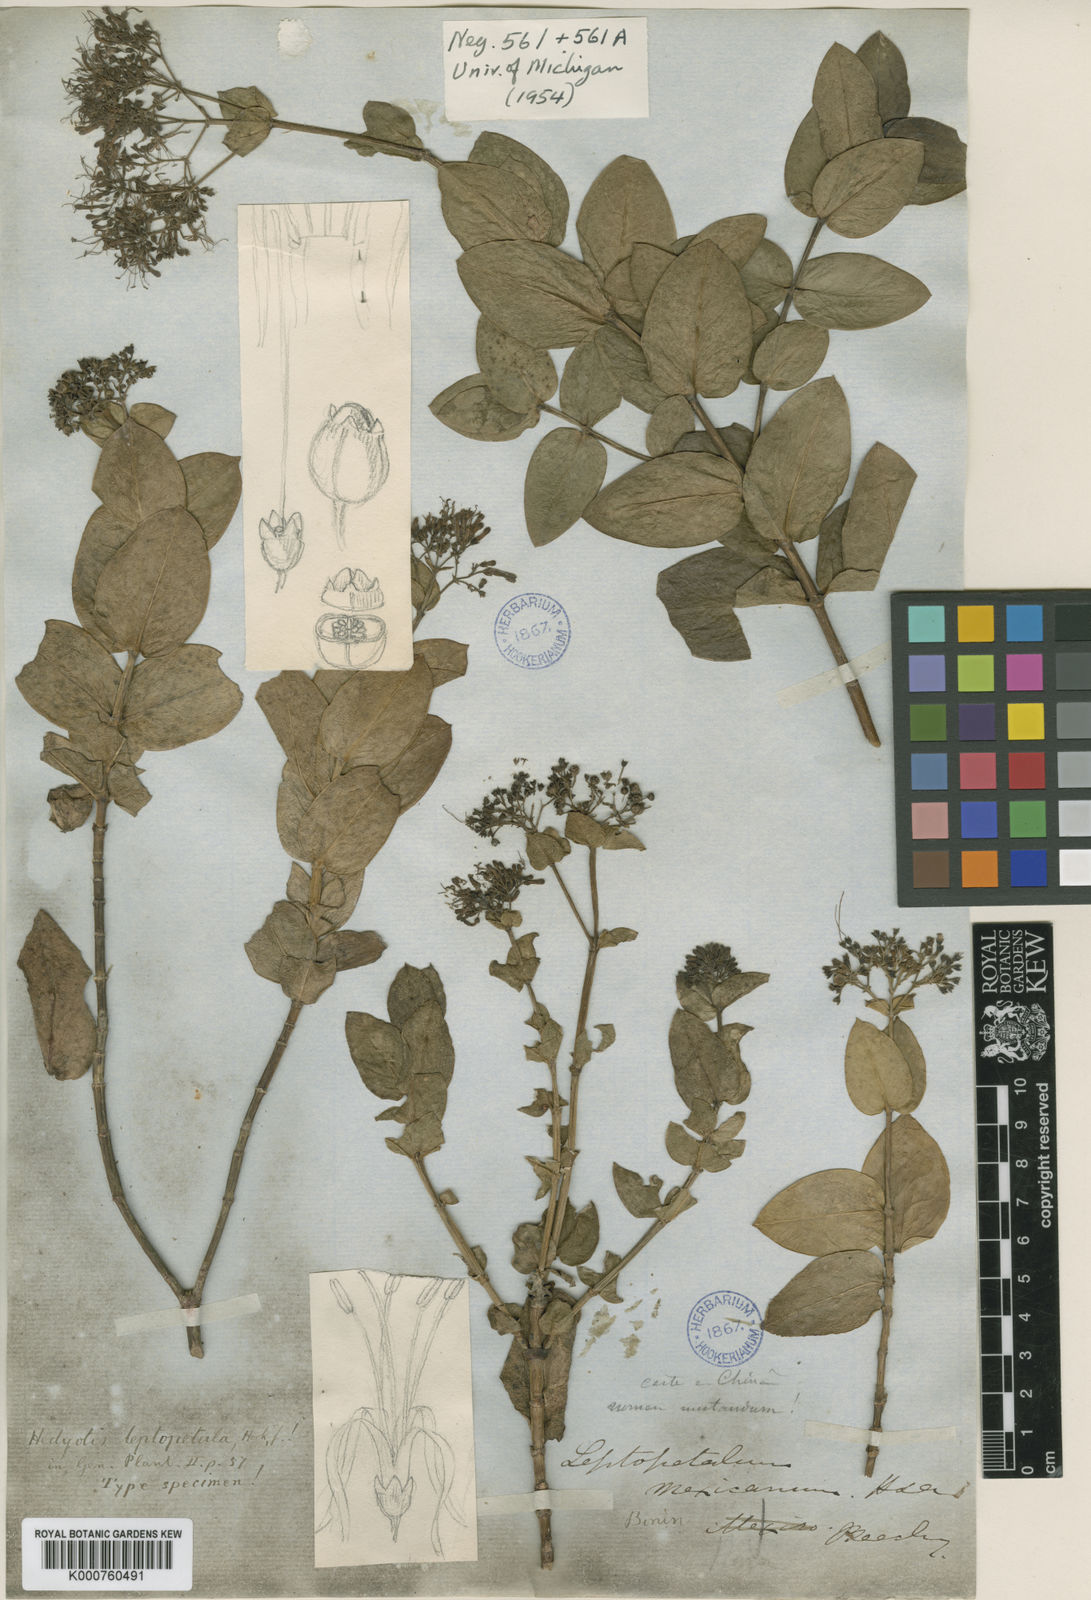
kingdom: Plantae
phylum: Tracheophyta
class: Magnoliopsida
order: Gentianales
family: Rubiaceae
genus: Leptopetalum
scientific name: Leptopetalum
